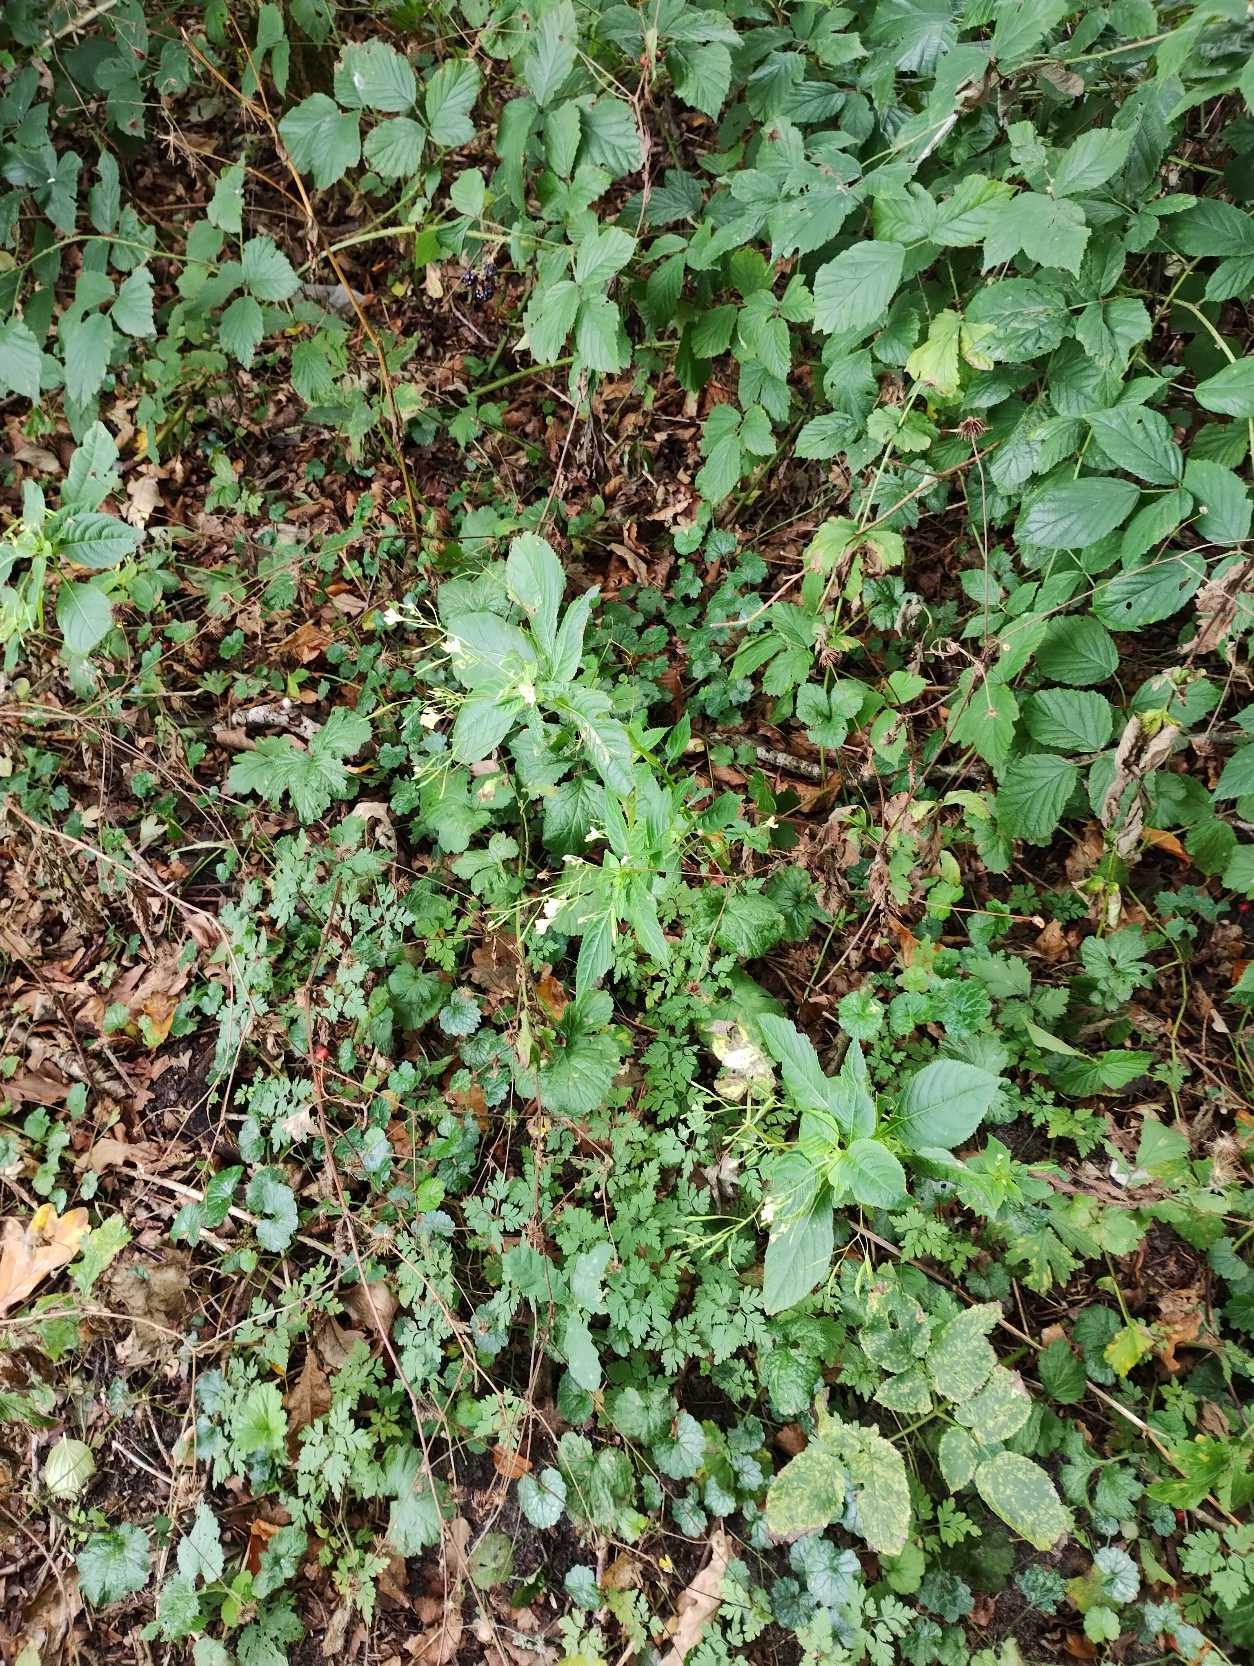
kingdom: Plantae
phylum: Tracheophyta
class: Magnoliopsida
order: Ericales
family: Balsaminaceae
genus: Impatiens
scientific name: Impatiens parviflora
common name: Småblomstret balsamin
